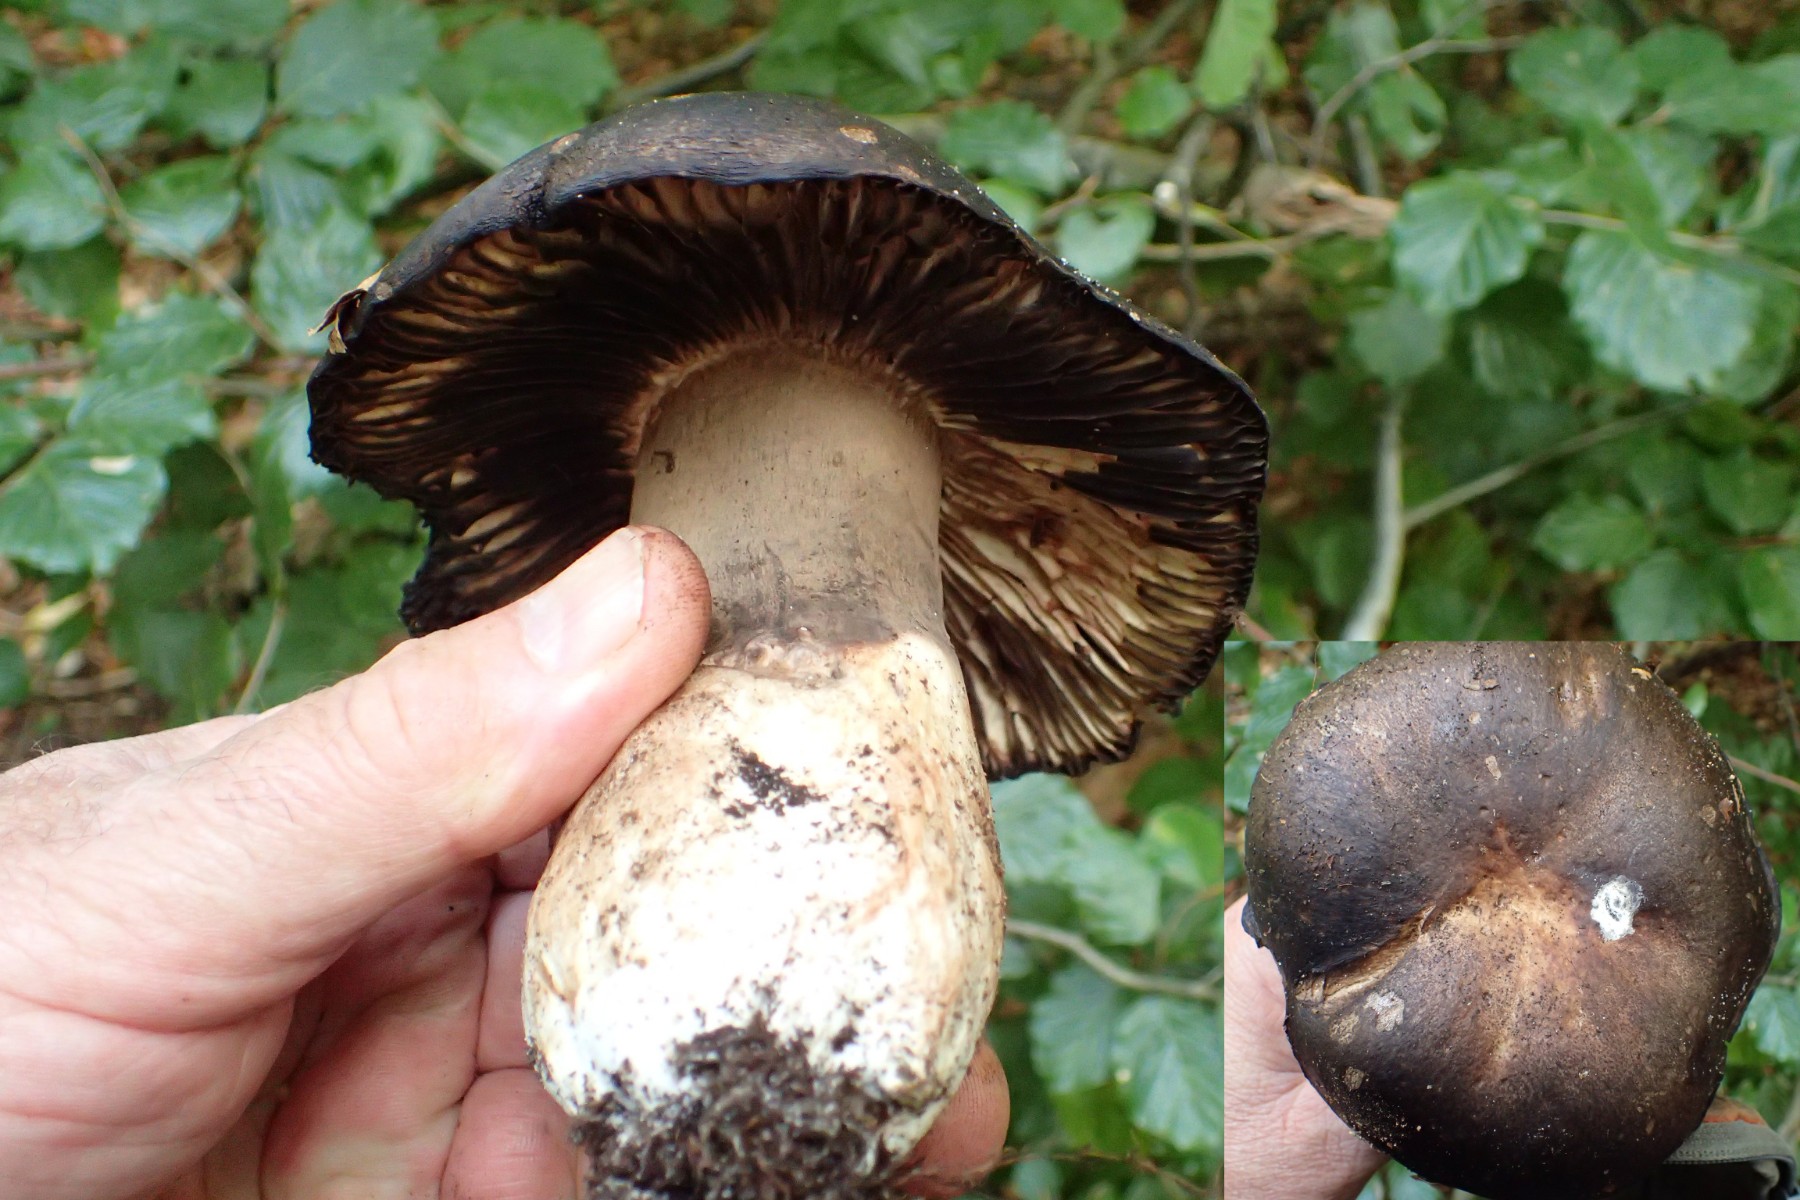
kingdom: Fungi
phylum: Basidiomycota
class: Agaricomycetes
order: Russulales
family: Russulaceae
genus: Russula
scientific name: Russula adusta
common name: sværtende skørhat
